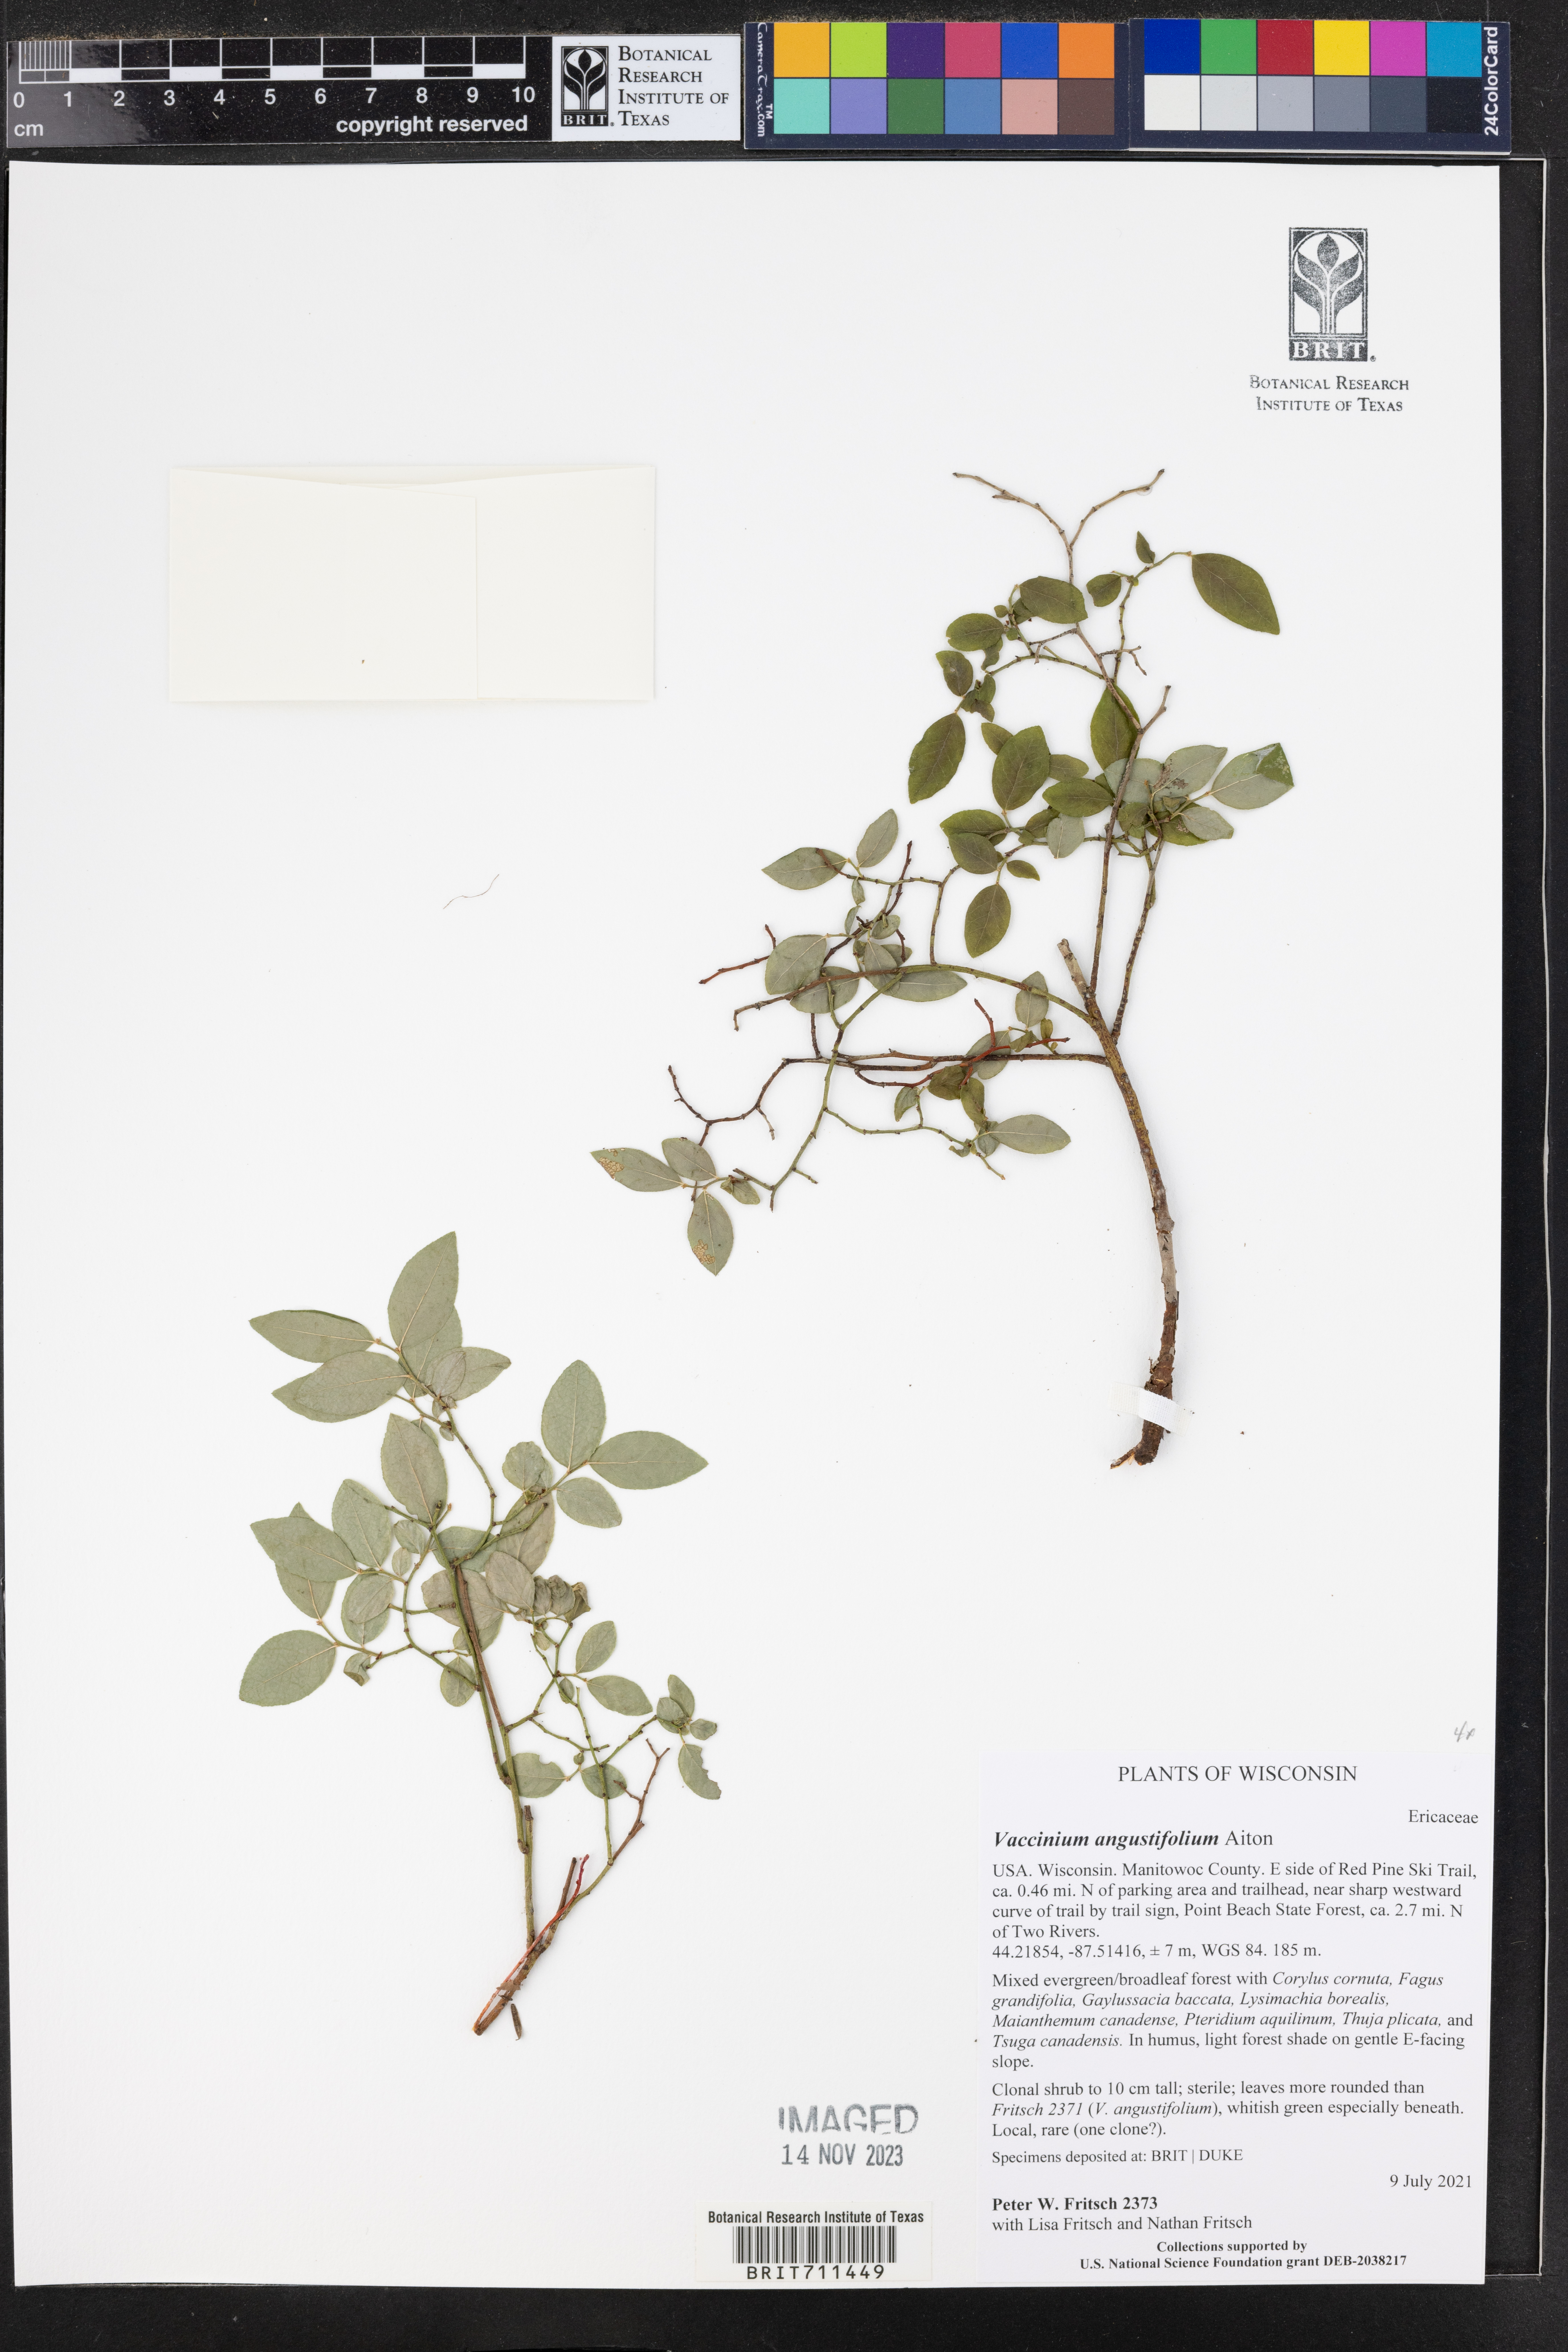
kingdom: Plantae
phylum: Tracheophyta
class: Magnoliopsida
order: Ericales
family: Ericaceae
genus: Vaccinium
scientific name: Vaccinium
